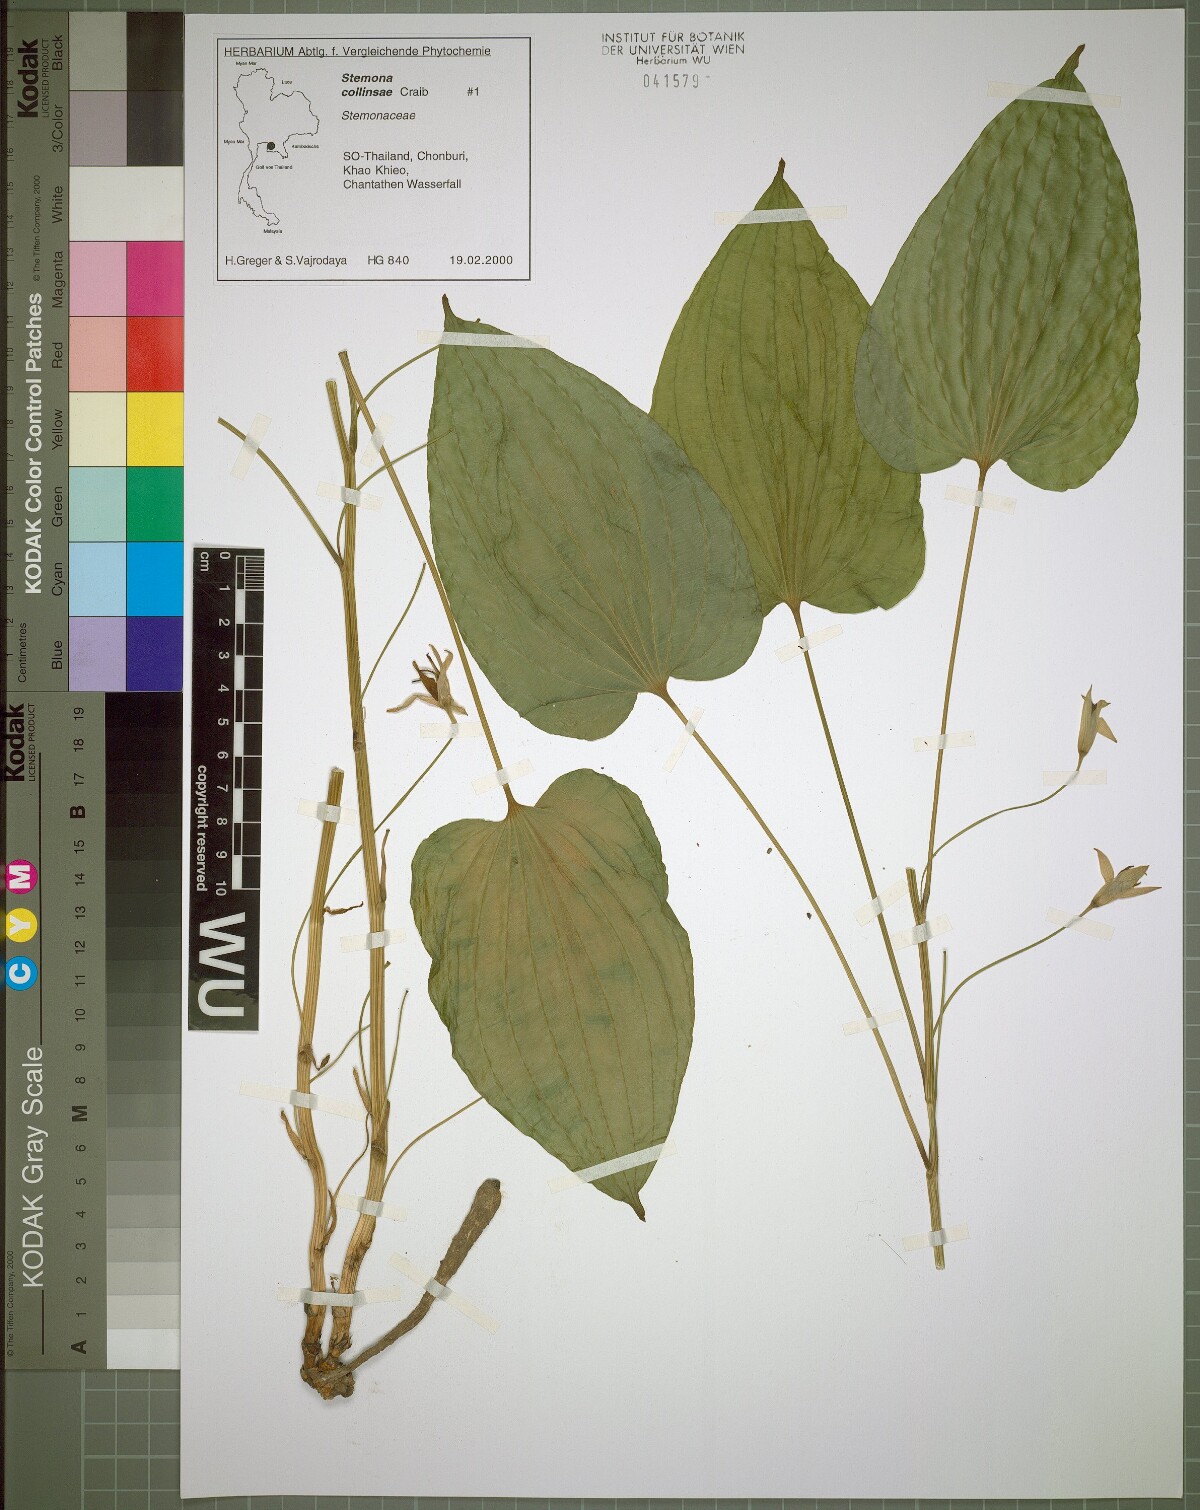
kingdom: Plantae
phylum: Tracheophyta
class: Liliopsida
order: Pandanales
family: Stemonaceae
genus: Stemona
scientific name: Stemona collinsiae
